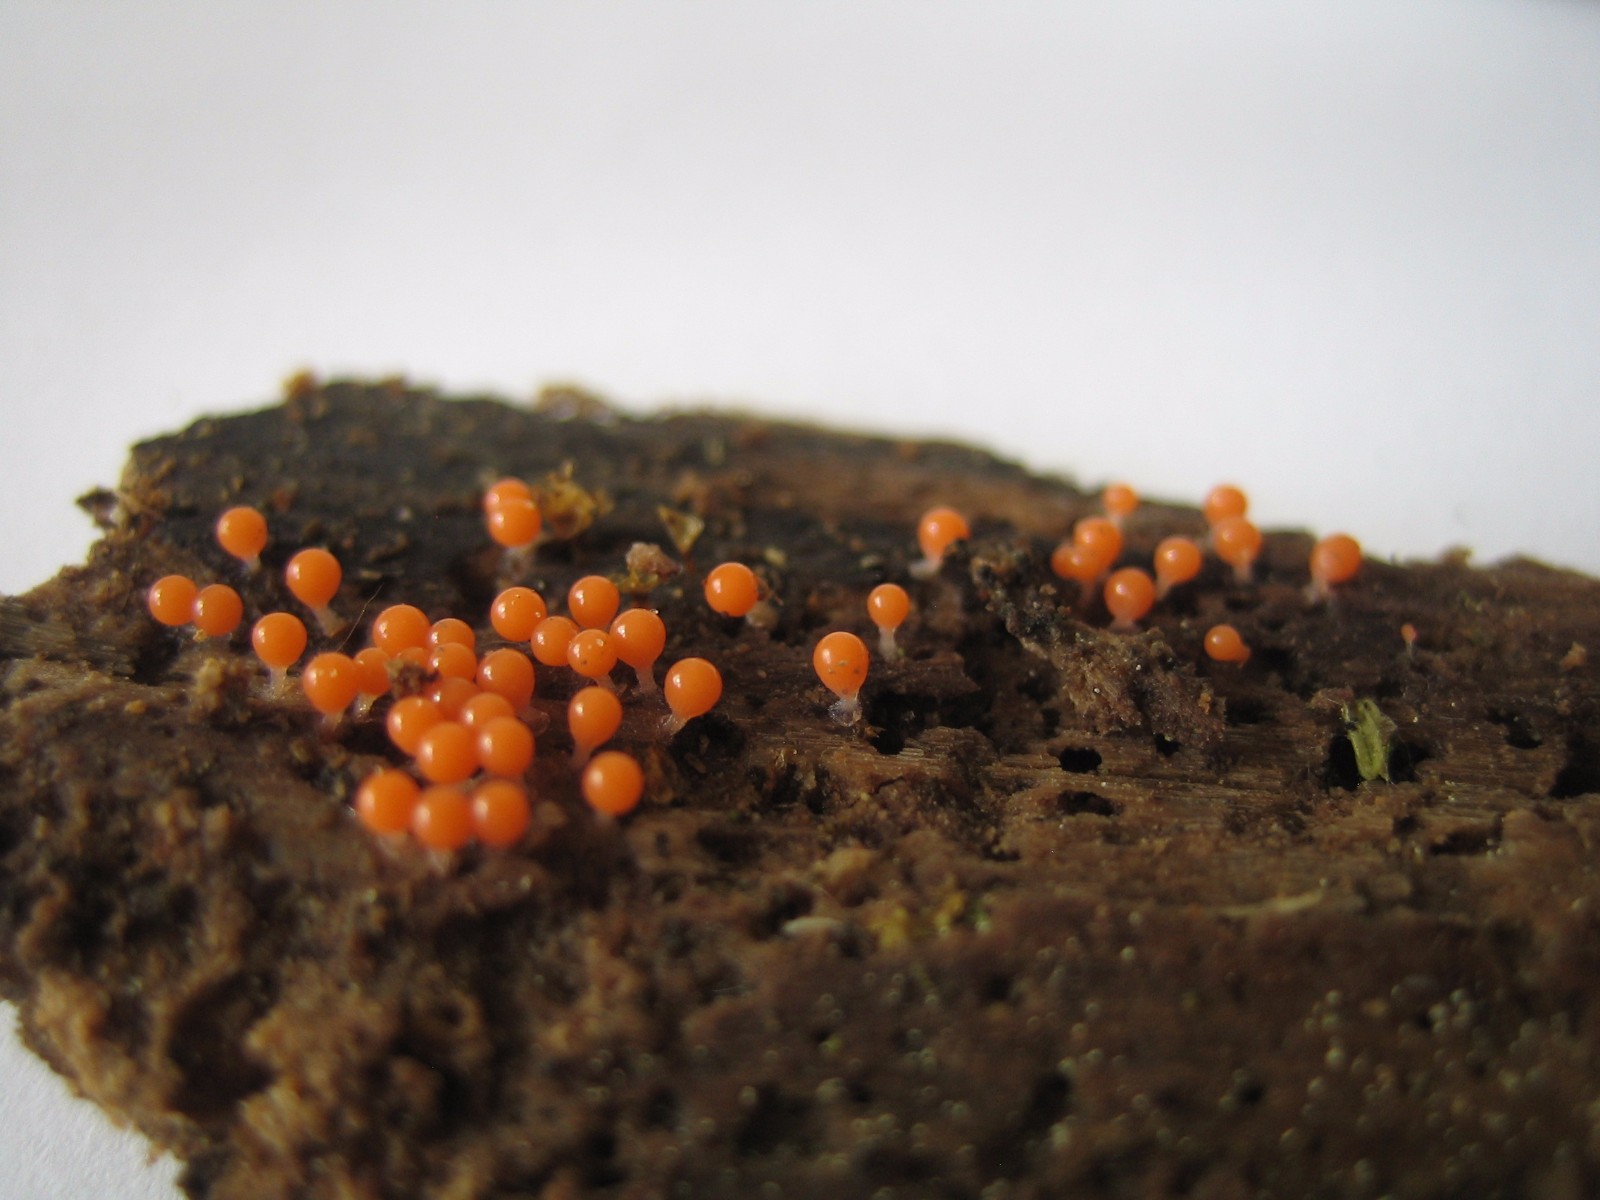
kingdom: Protozoa
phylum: Mycetozoa
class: Myxomycetes
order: Trichiales
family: Trichiaceae
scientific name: Trichiaceae
